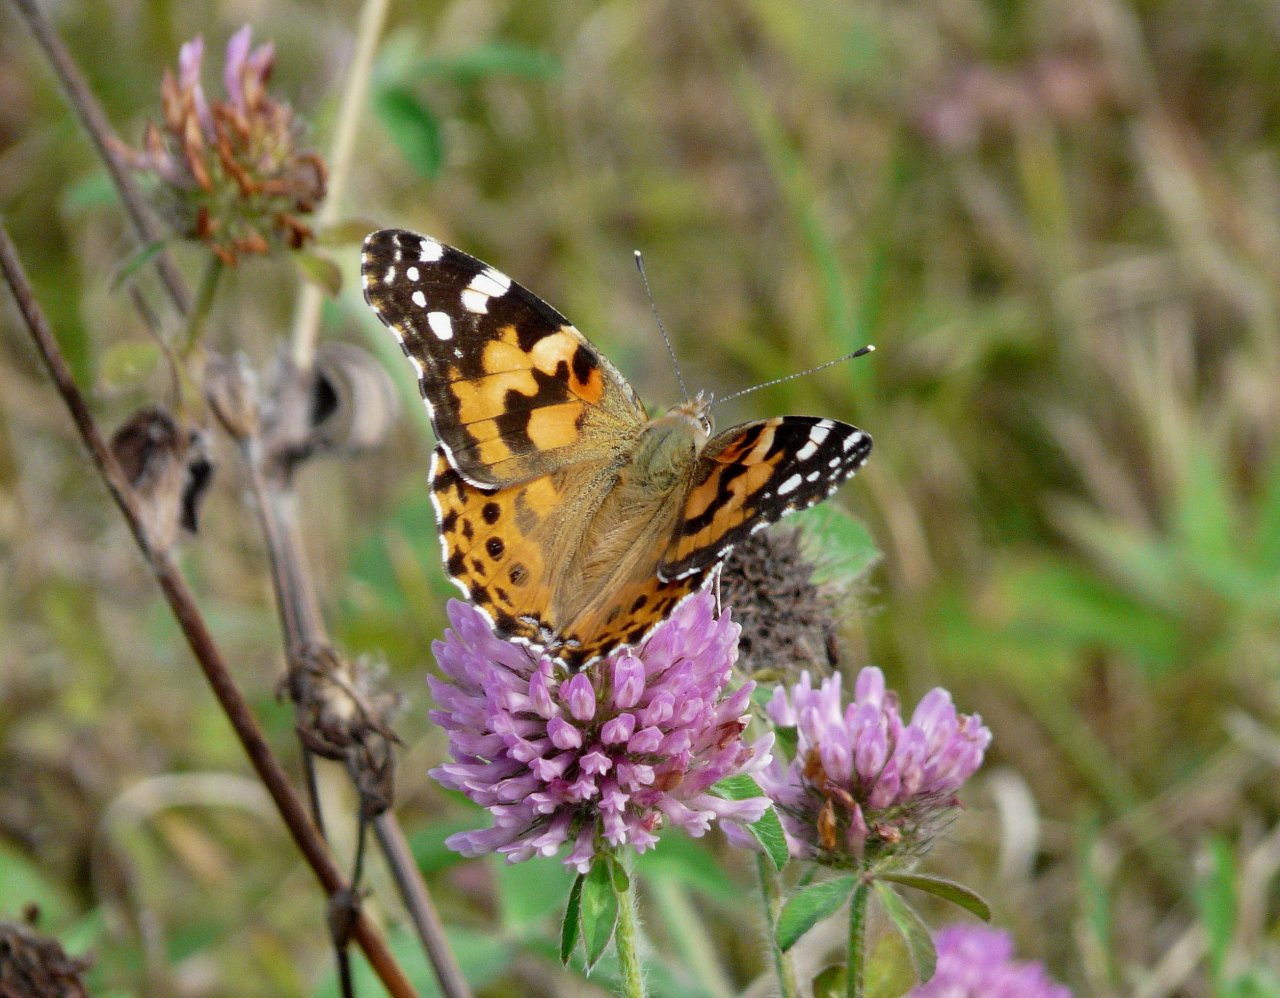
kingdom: Animalia
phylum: Arthropoda
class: Insecta
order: Lepidoptera
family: Nymphalidae
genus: Vanessa
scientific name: Vanessa cardui
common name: Painted Lady
